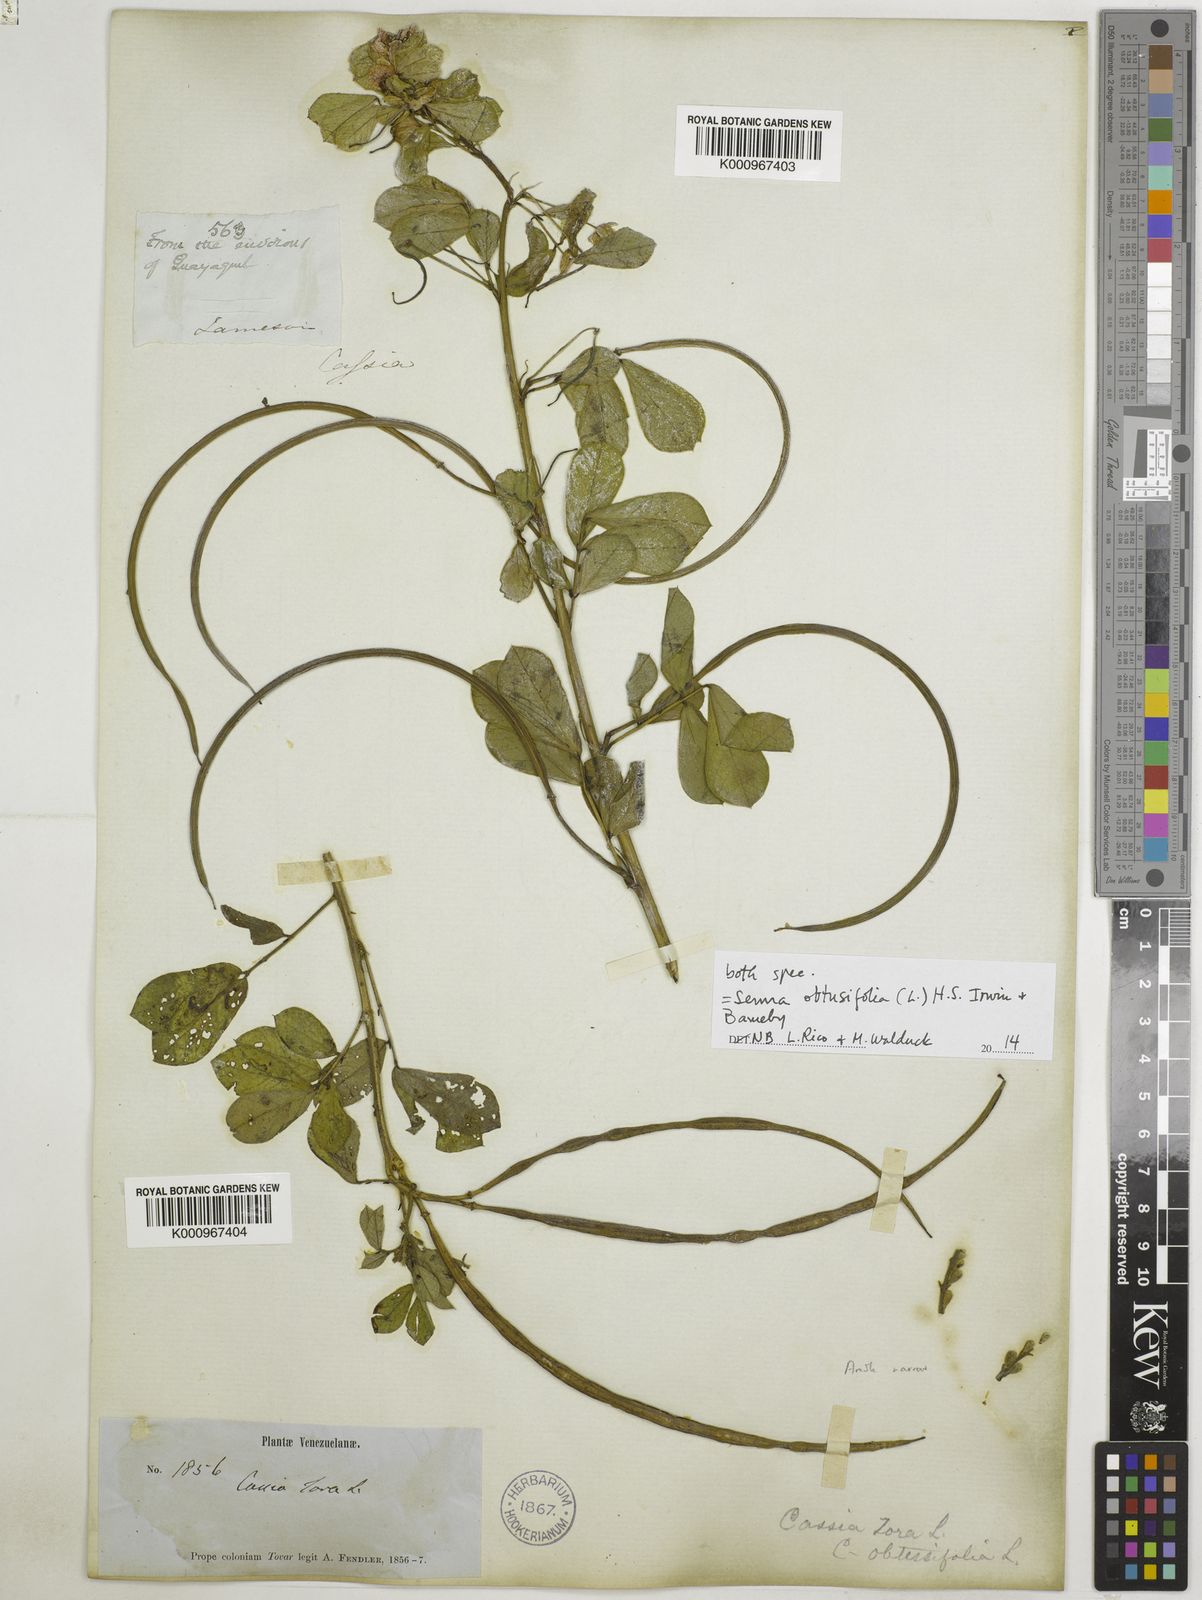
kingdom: Plantae
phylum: Tracheophyta
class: Magnoliopsida
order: Fabales
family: Fabaceae
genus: Senna
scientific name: Senna obtusifolia
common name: Java-bean
